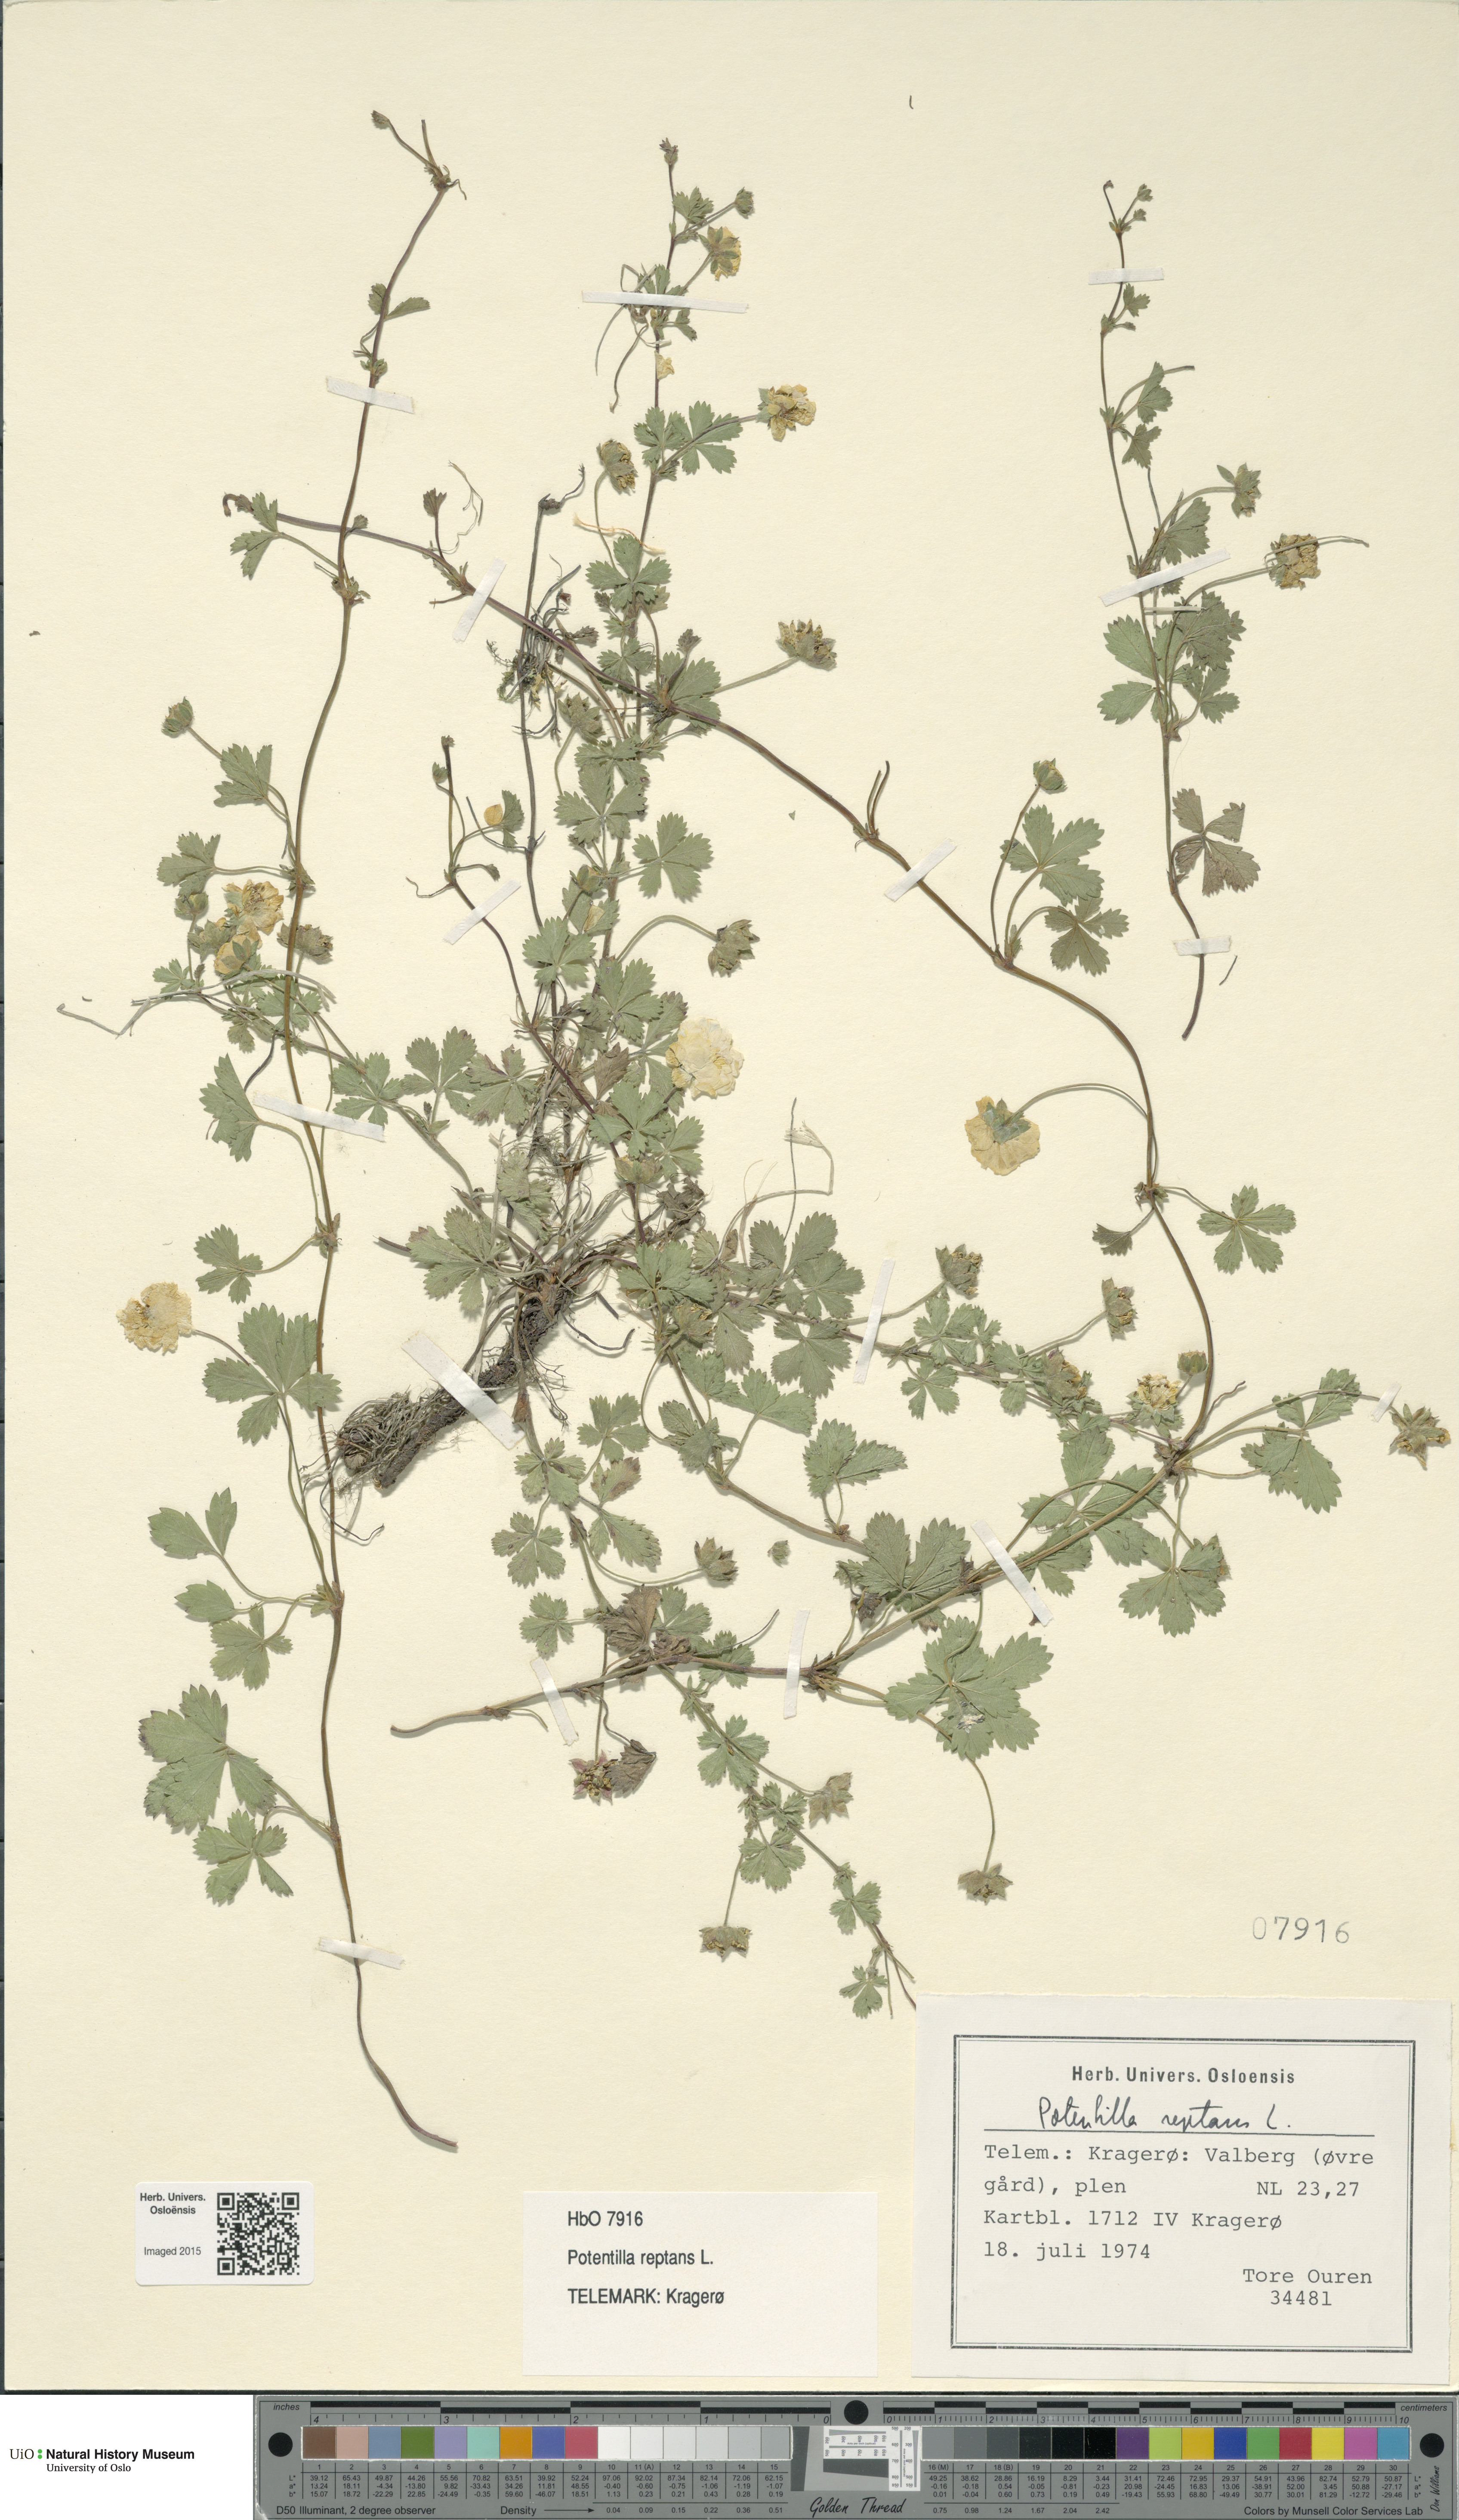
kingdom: Plantae
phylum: Tracheophyta
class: Magnoliopsida
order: Rosales
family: Rosaceae
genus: Potentilla
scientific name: Potentilla reptans
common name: Creeping cinquefoil
